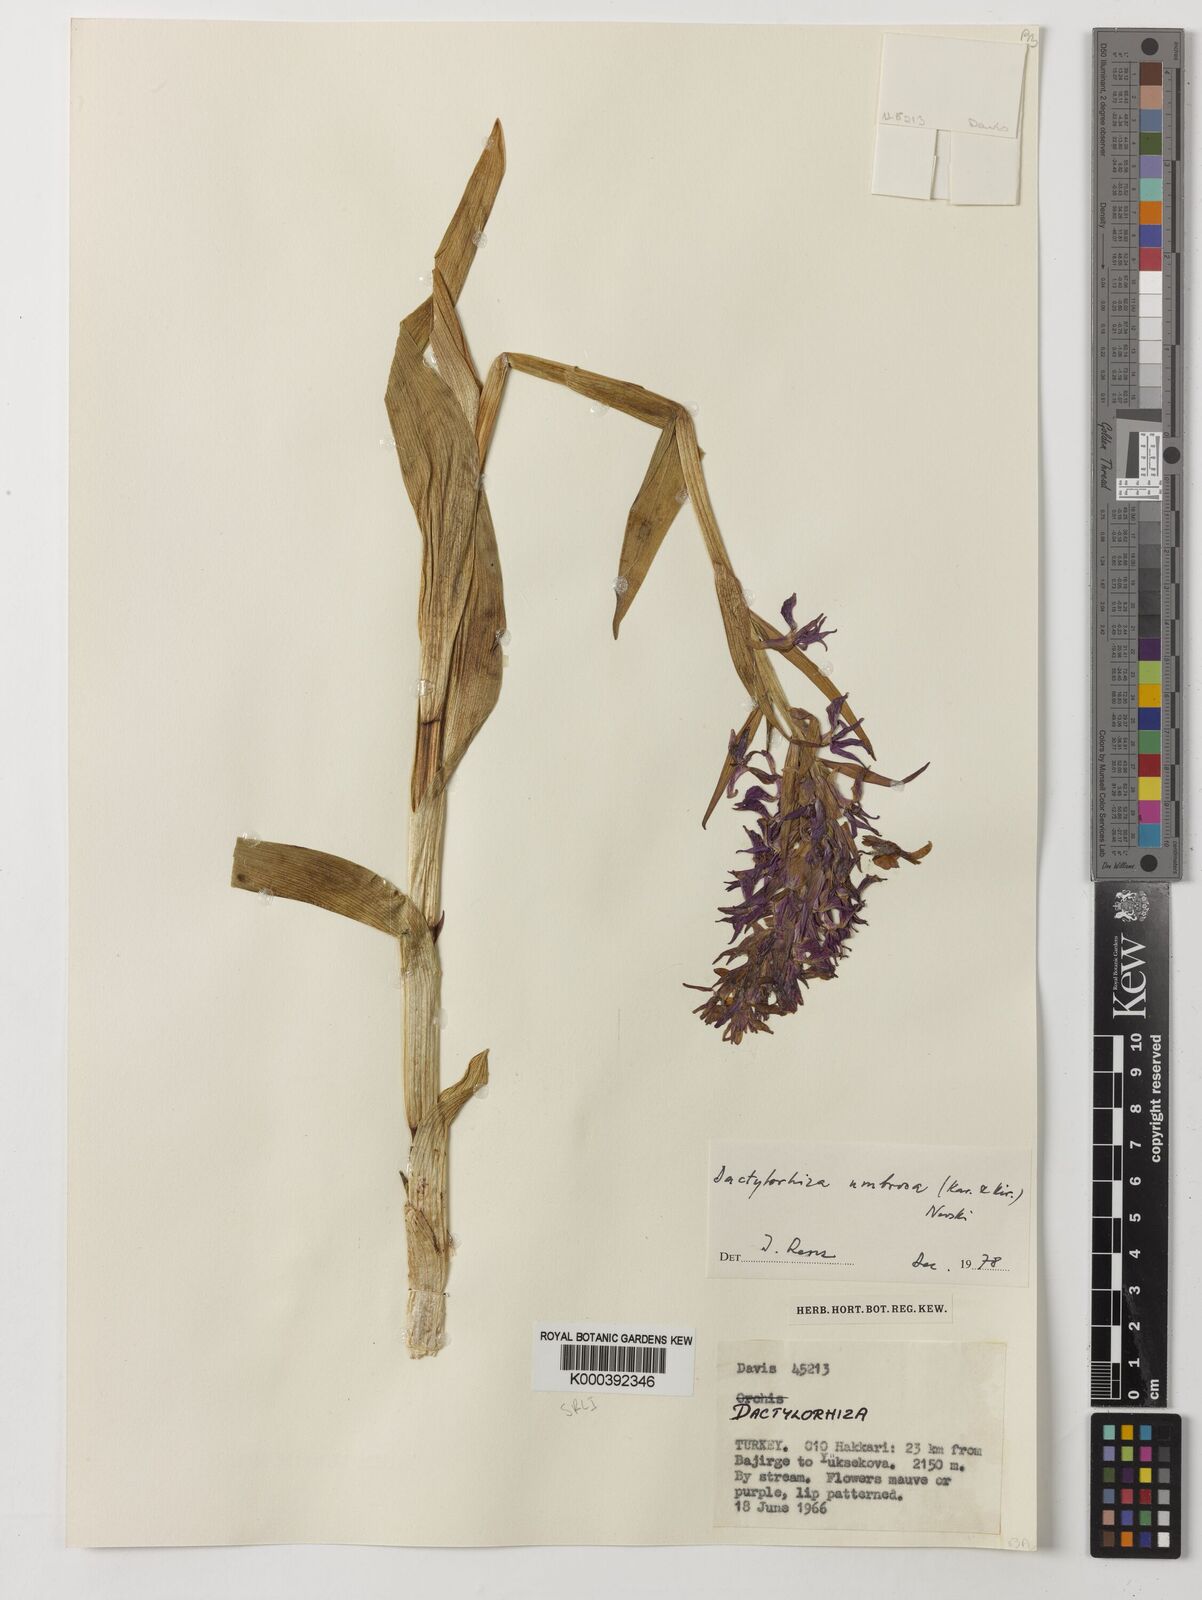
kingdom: Plantae
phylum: Tracheophyta
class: Liliopsida
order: Asparagales
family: Orchidaceae
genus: Dactylorhiza
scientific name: Dactylorhiza
